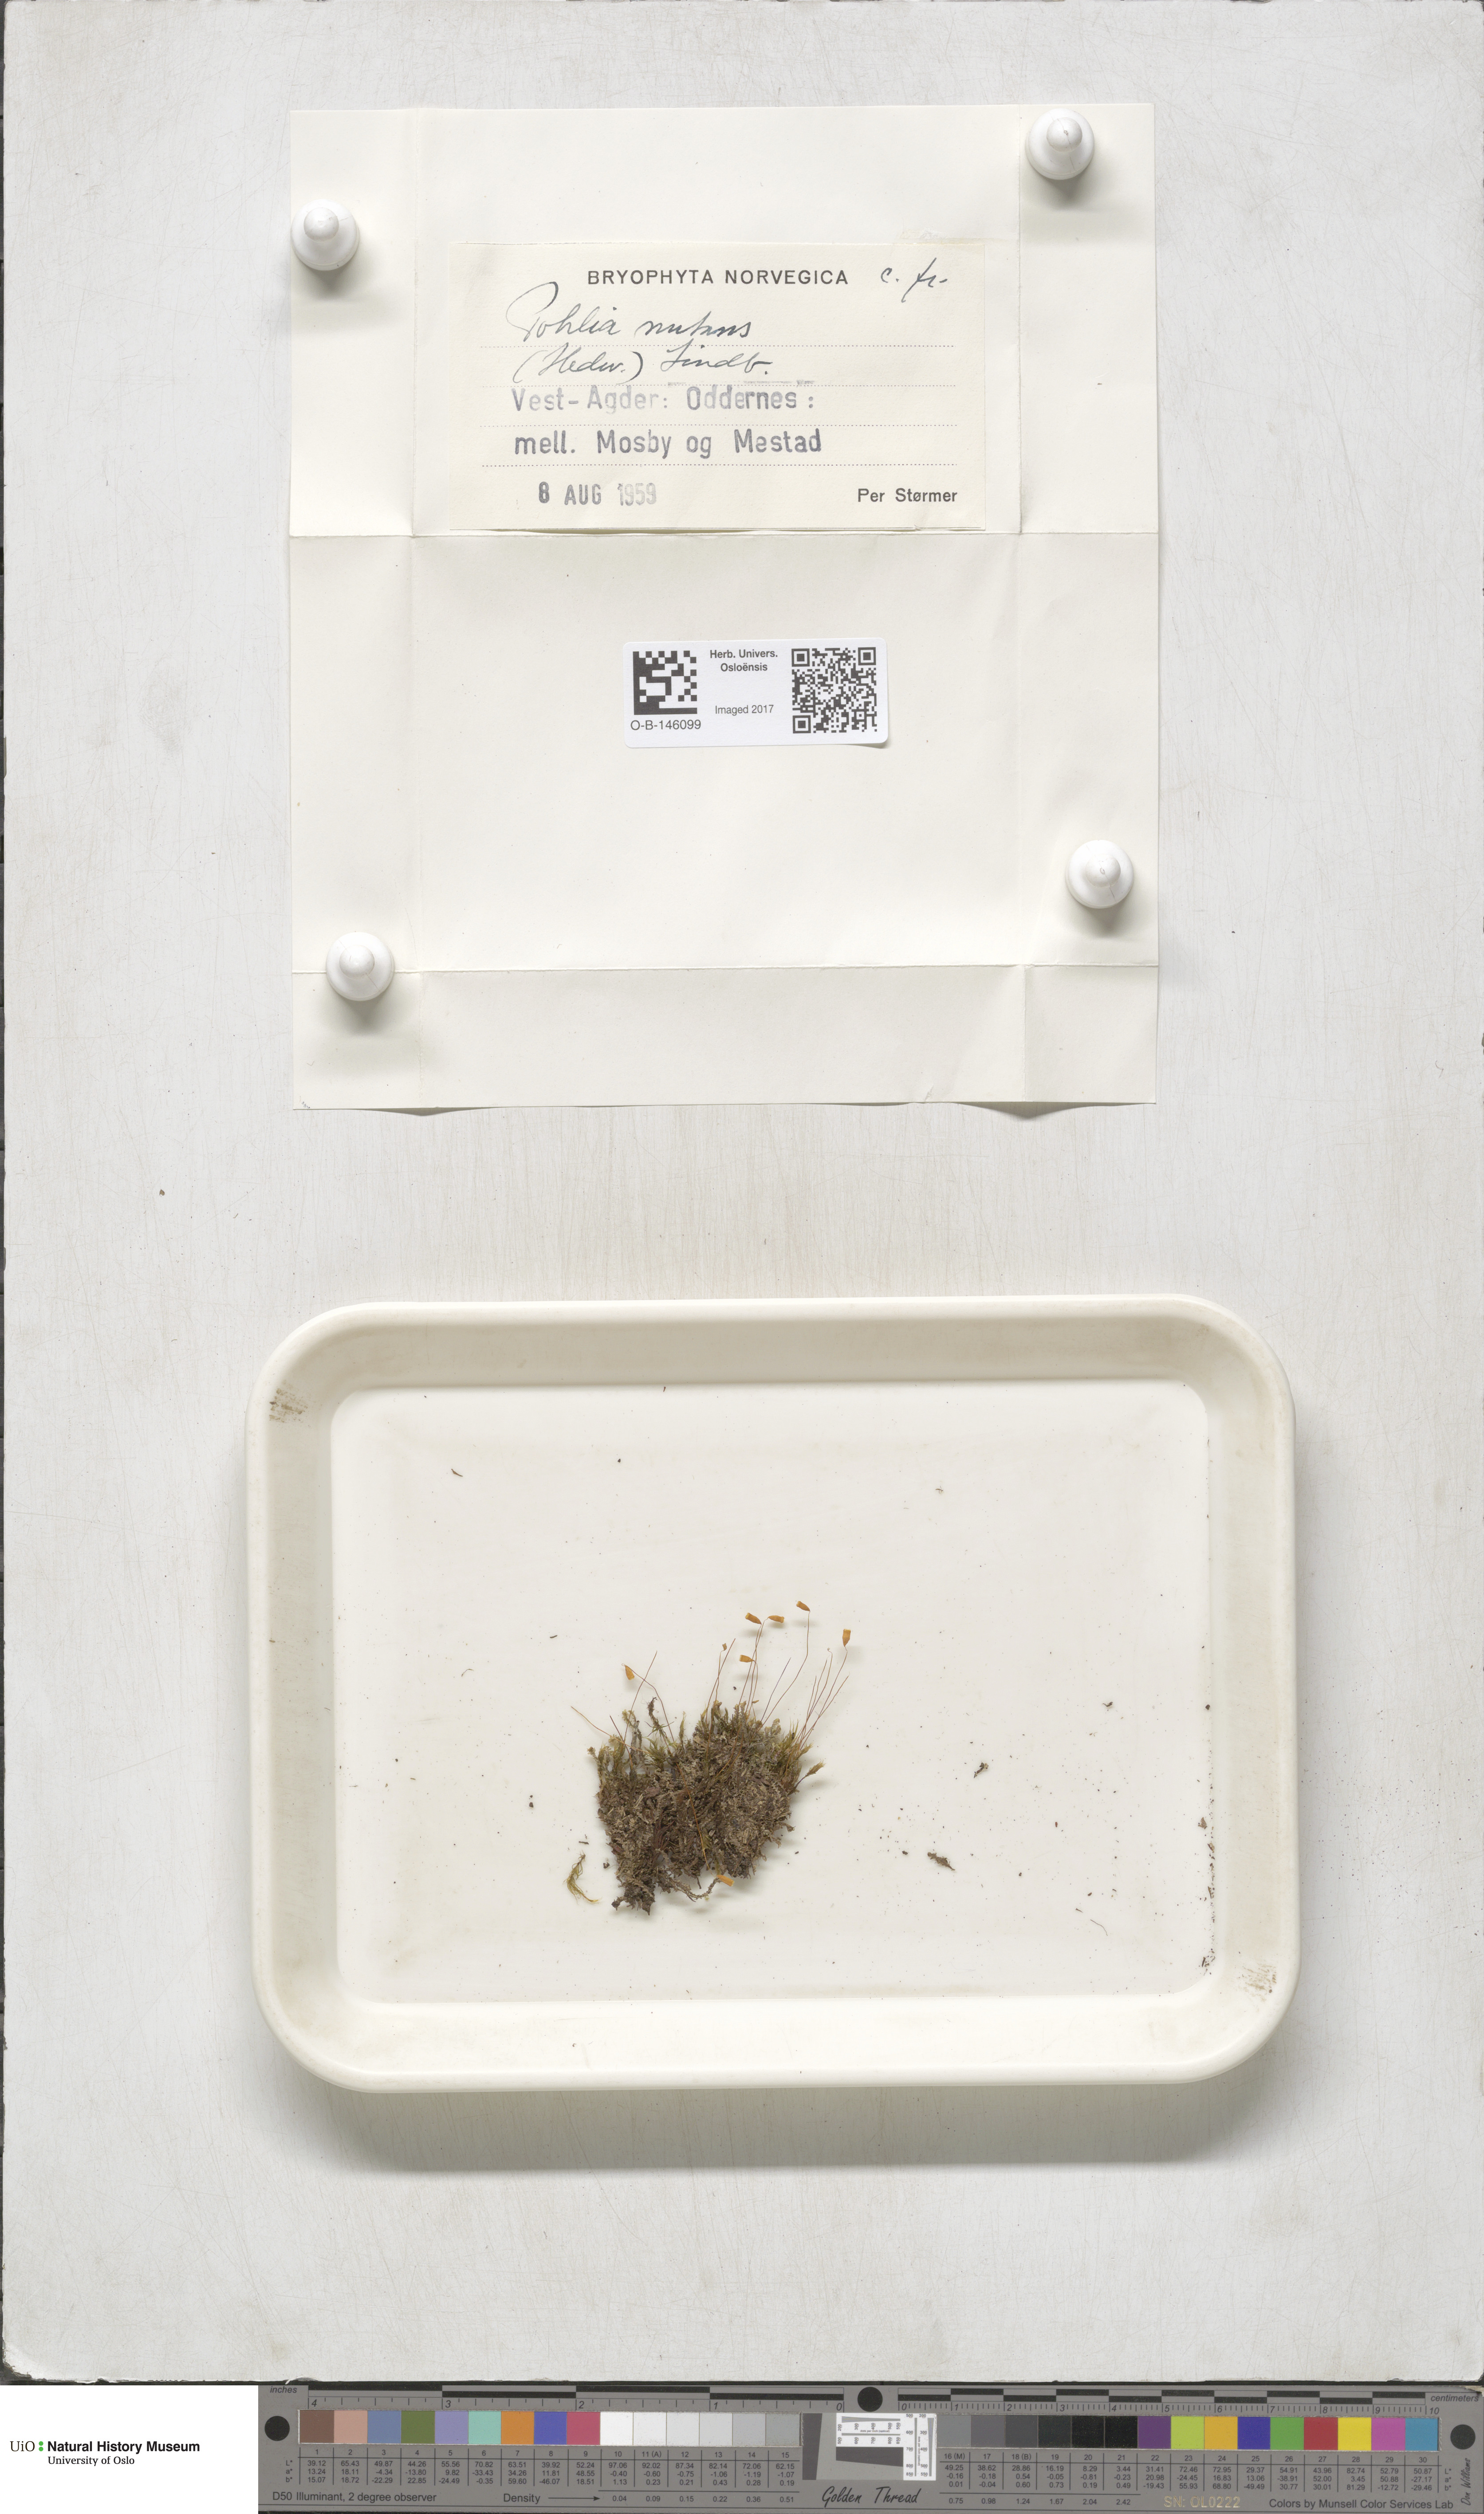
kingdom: Plantae
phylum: Bryophyta
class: Bryopsida
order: Bryales
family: Mniaceae
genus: Pohlia
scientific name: Pohlia nutans
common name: Nodding thread-moss
